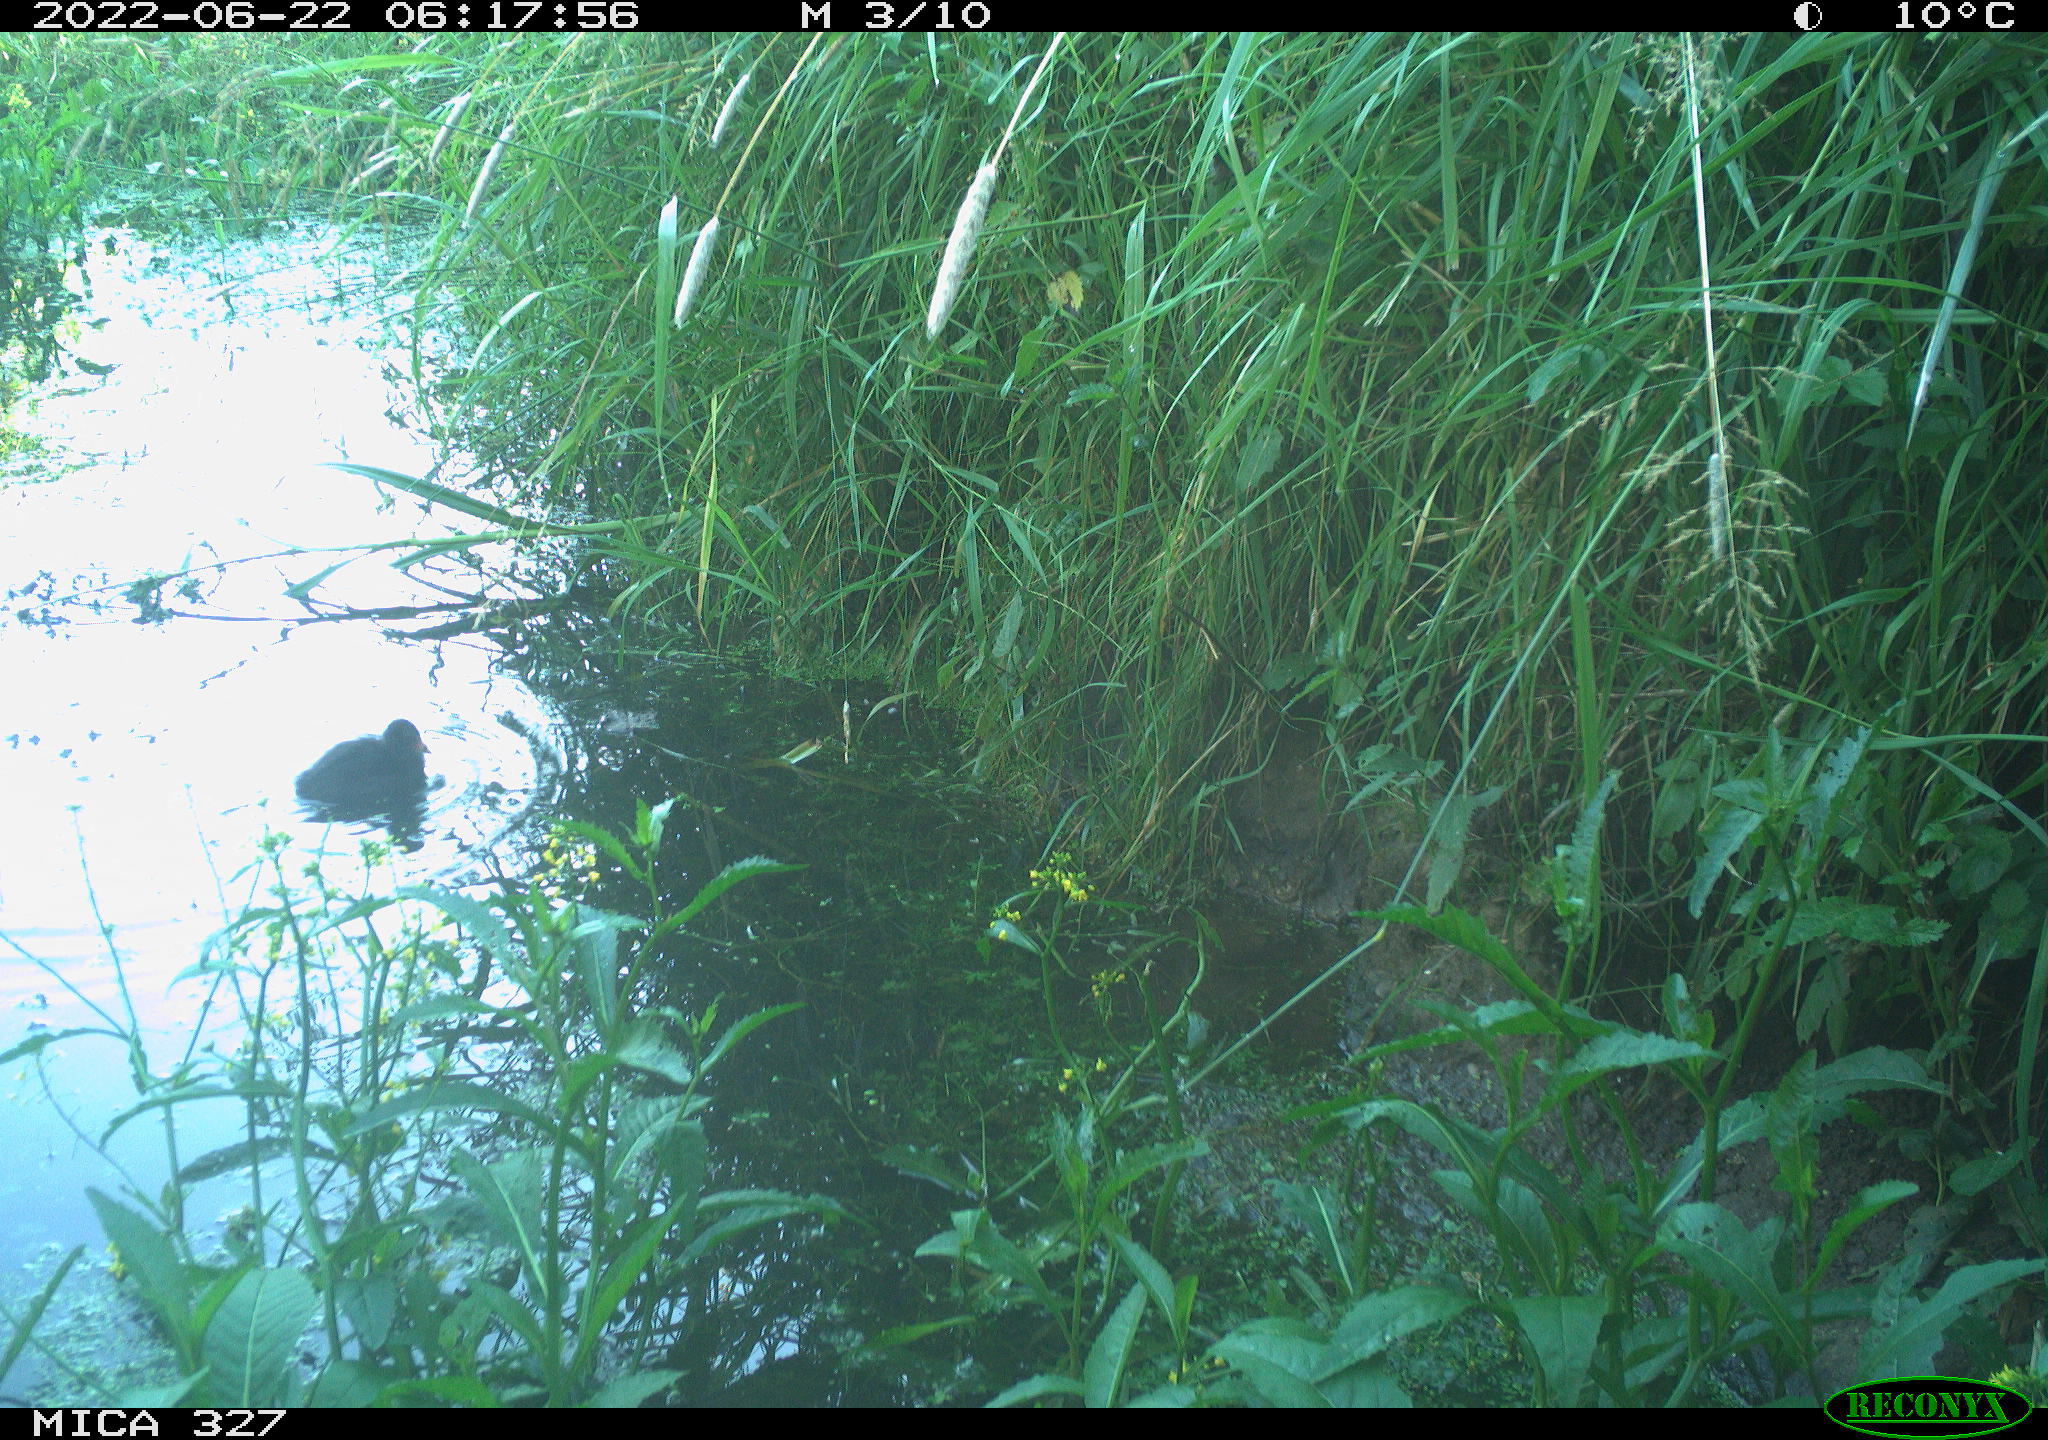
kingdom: Animalia
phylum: Chordata
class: Aves
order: Gruiformes
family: Rallidae
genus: Gallinula
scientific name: Gallinula chloropus
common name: Common moorhen
